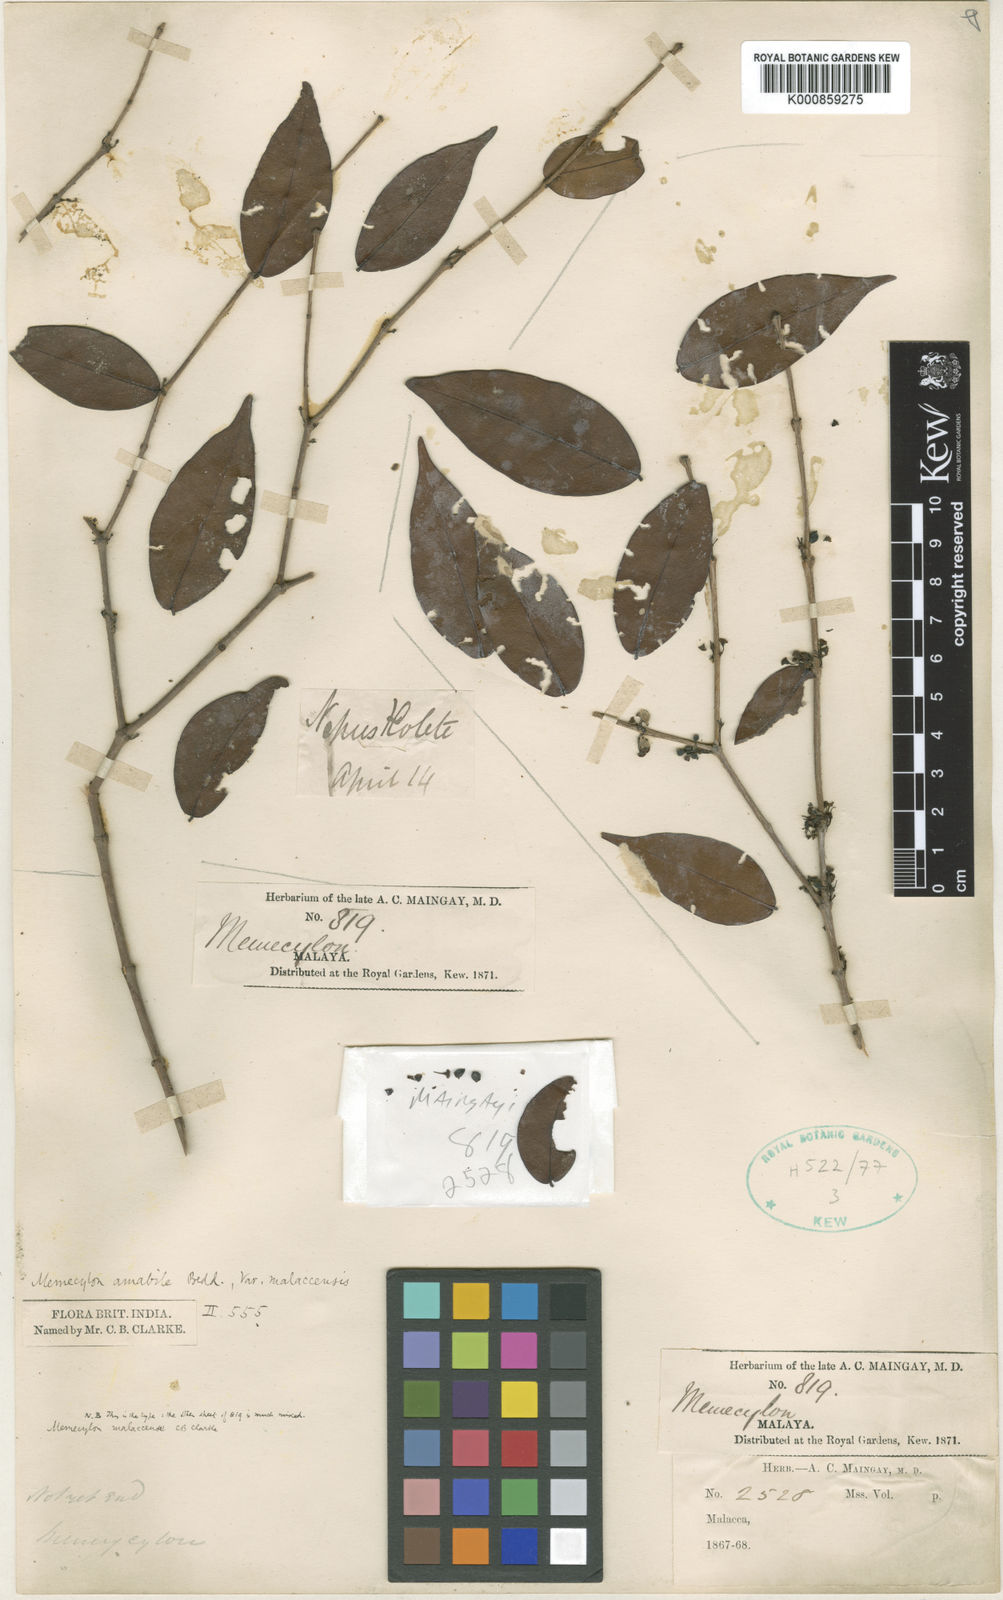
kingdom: Plantae
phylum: Tracheophyta
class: Magnoliopsida
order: Myrtales
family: Melastomataceae
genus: Memecylon
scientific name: Memecylon malaccense
